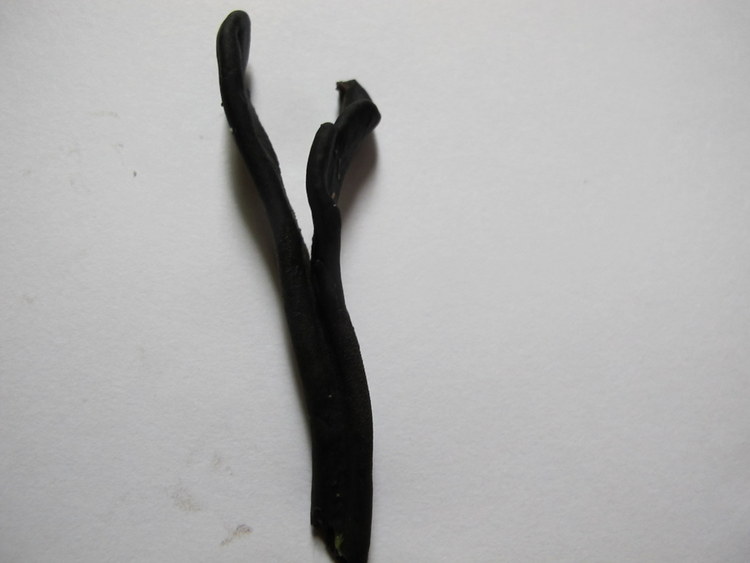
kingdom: Fungi
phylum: Ascomycota
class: Geoglossomycetes
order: Geoglossales
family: Geoglossaceae
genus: Geoglossum
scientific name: Geoglossum cookeianum
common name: bred jordtunge
